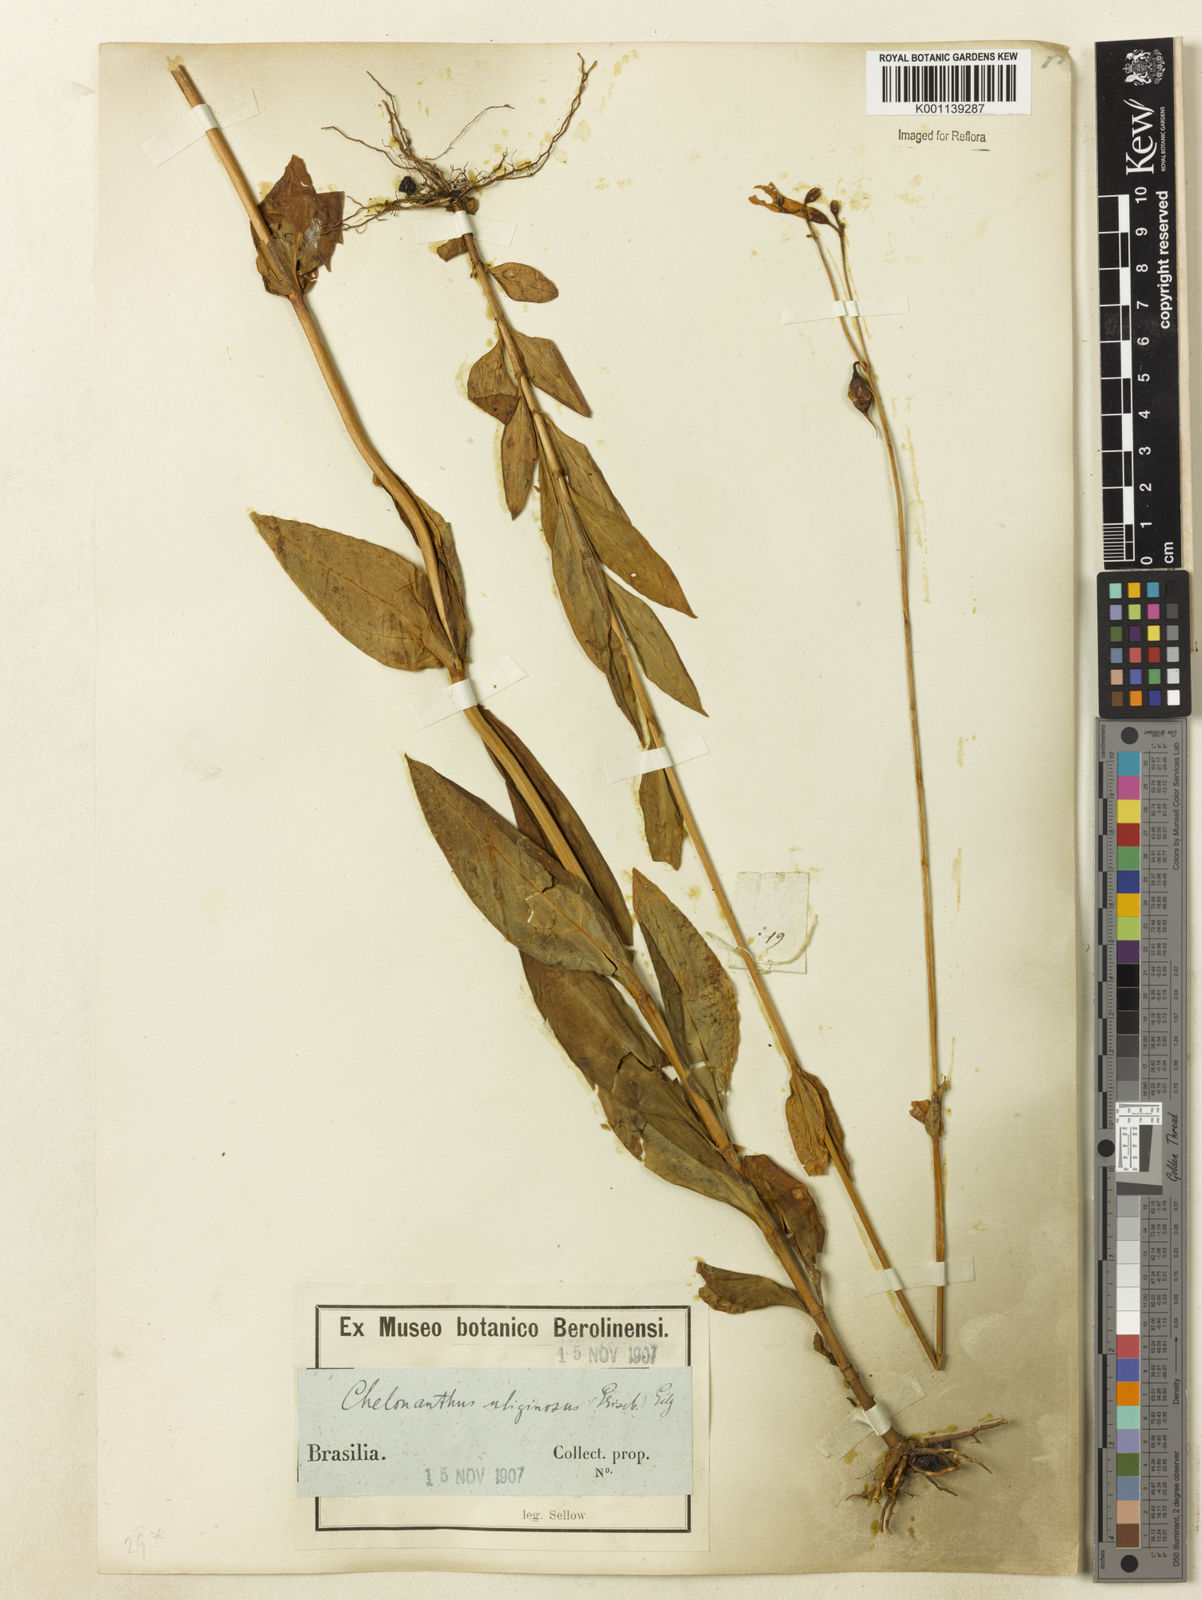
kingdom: Plantae
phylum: Tracheophyta
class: Magnoliopsida
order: Gentianales
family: Gentianaceae
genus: Chelonanthus
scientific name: Chelonanthus purpurascens
